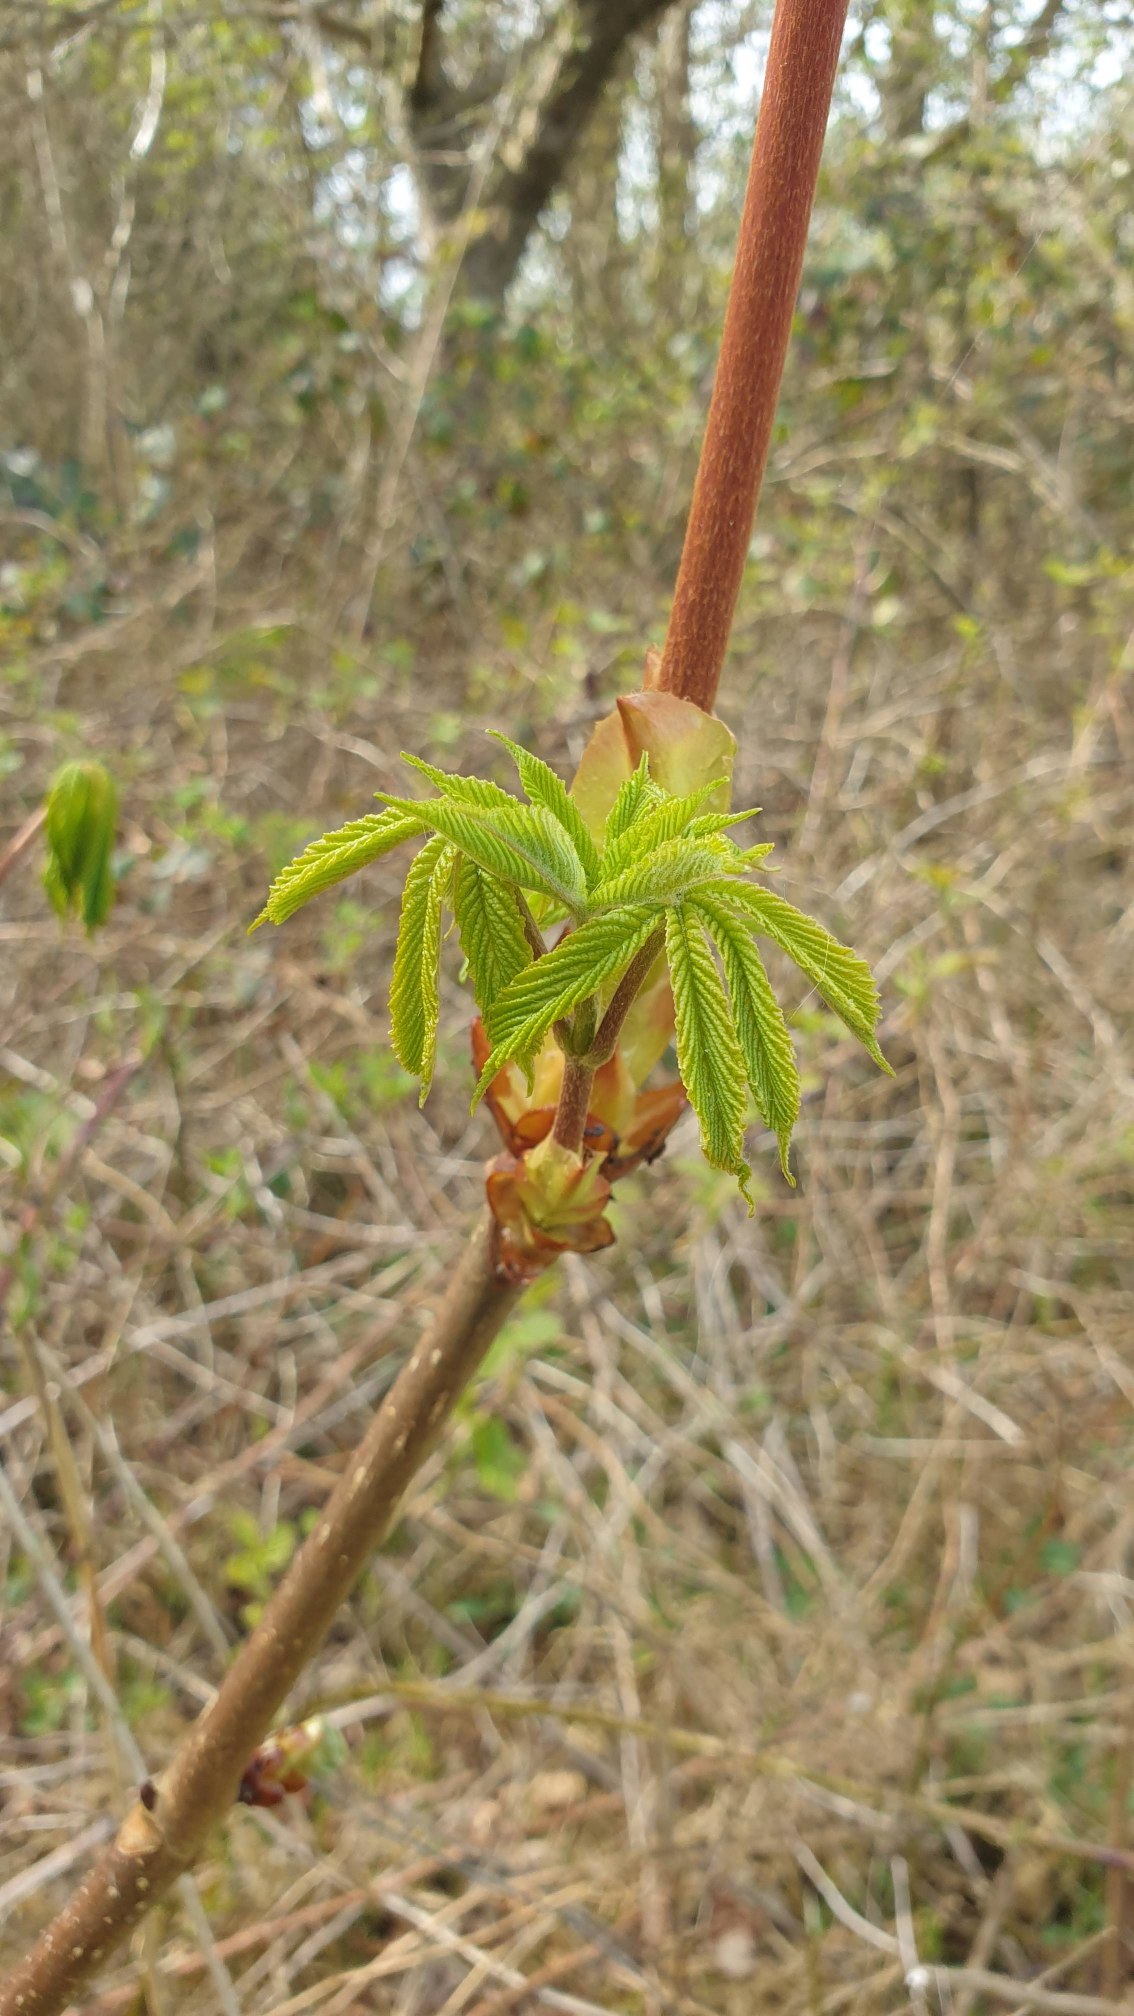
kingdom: Plantae
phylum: Tracheophyta
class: Magnoliopsida
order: Sapindales
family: Sapindaceae
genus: Aesculus
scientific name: Aesculus hippocastanum
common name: Hestekastanie
